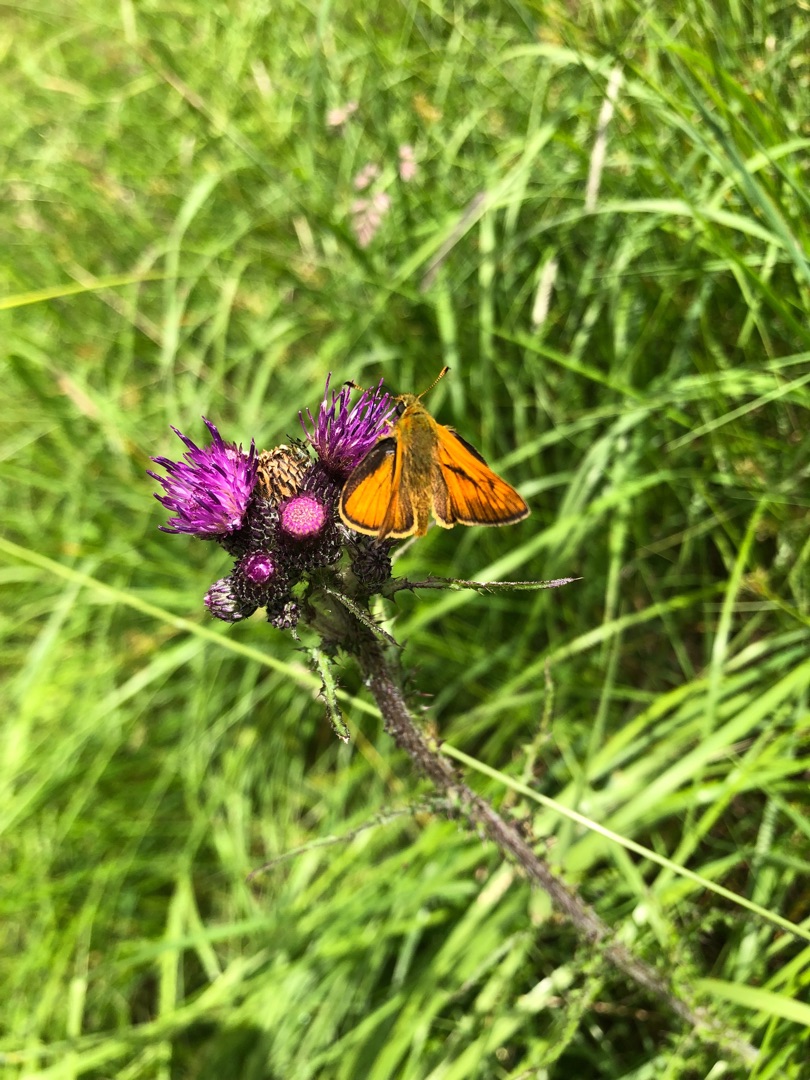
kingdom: Animalia
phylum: Arthropoda
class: Insecta
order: Lepidoptera
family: Hesperiidae
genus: Ochlodes
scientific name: Ochlodes venata
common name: Stor bredpande
